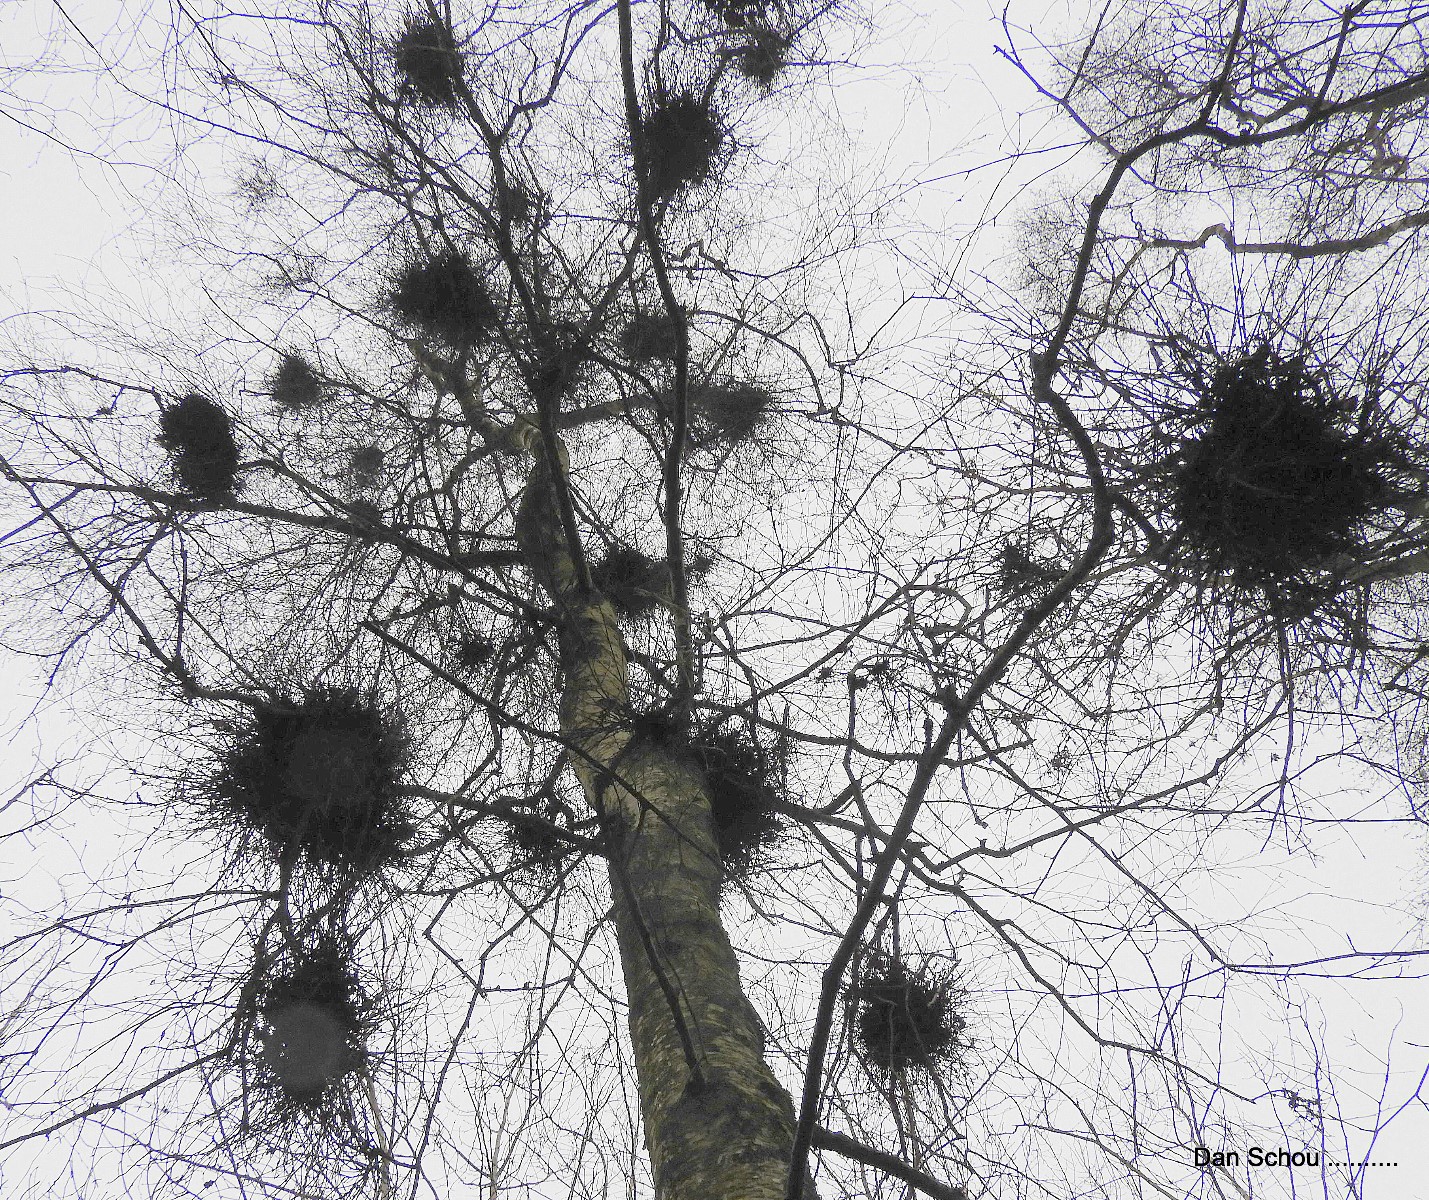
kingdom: Fungi
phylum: Ascomycota
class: Taphrinomycetes
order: Taphrinales
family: Taphrinaceae
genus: Taphrina
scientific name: Taphrina betulina
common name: hekse-sækdug
